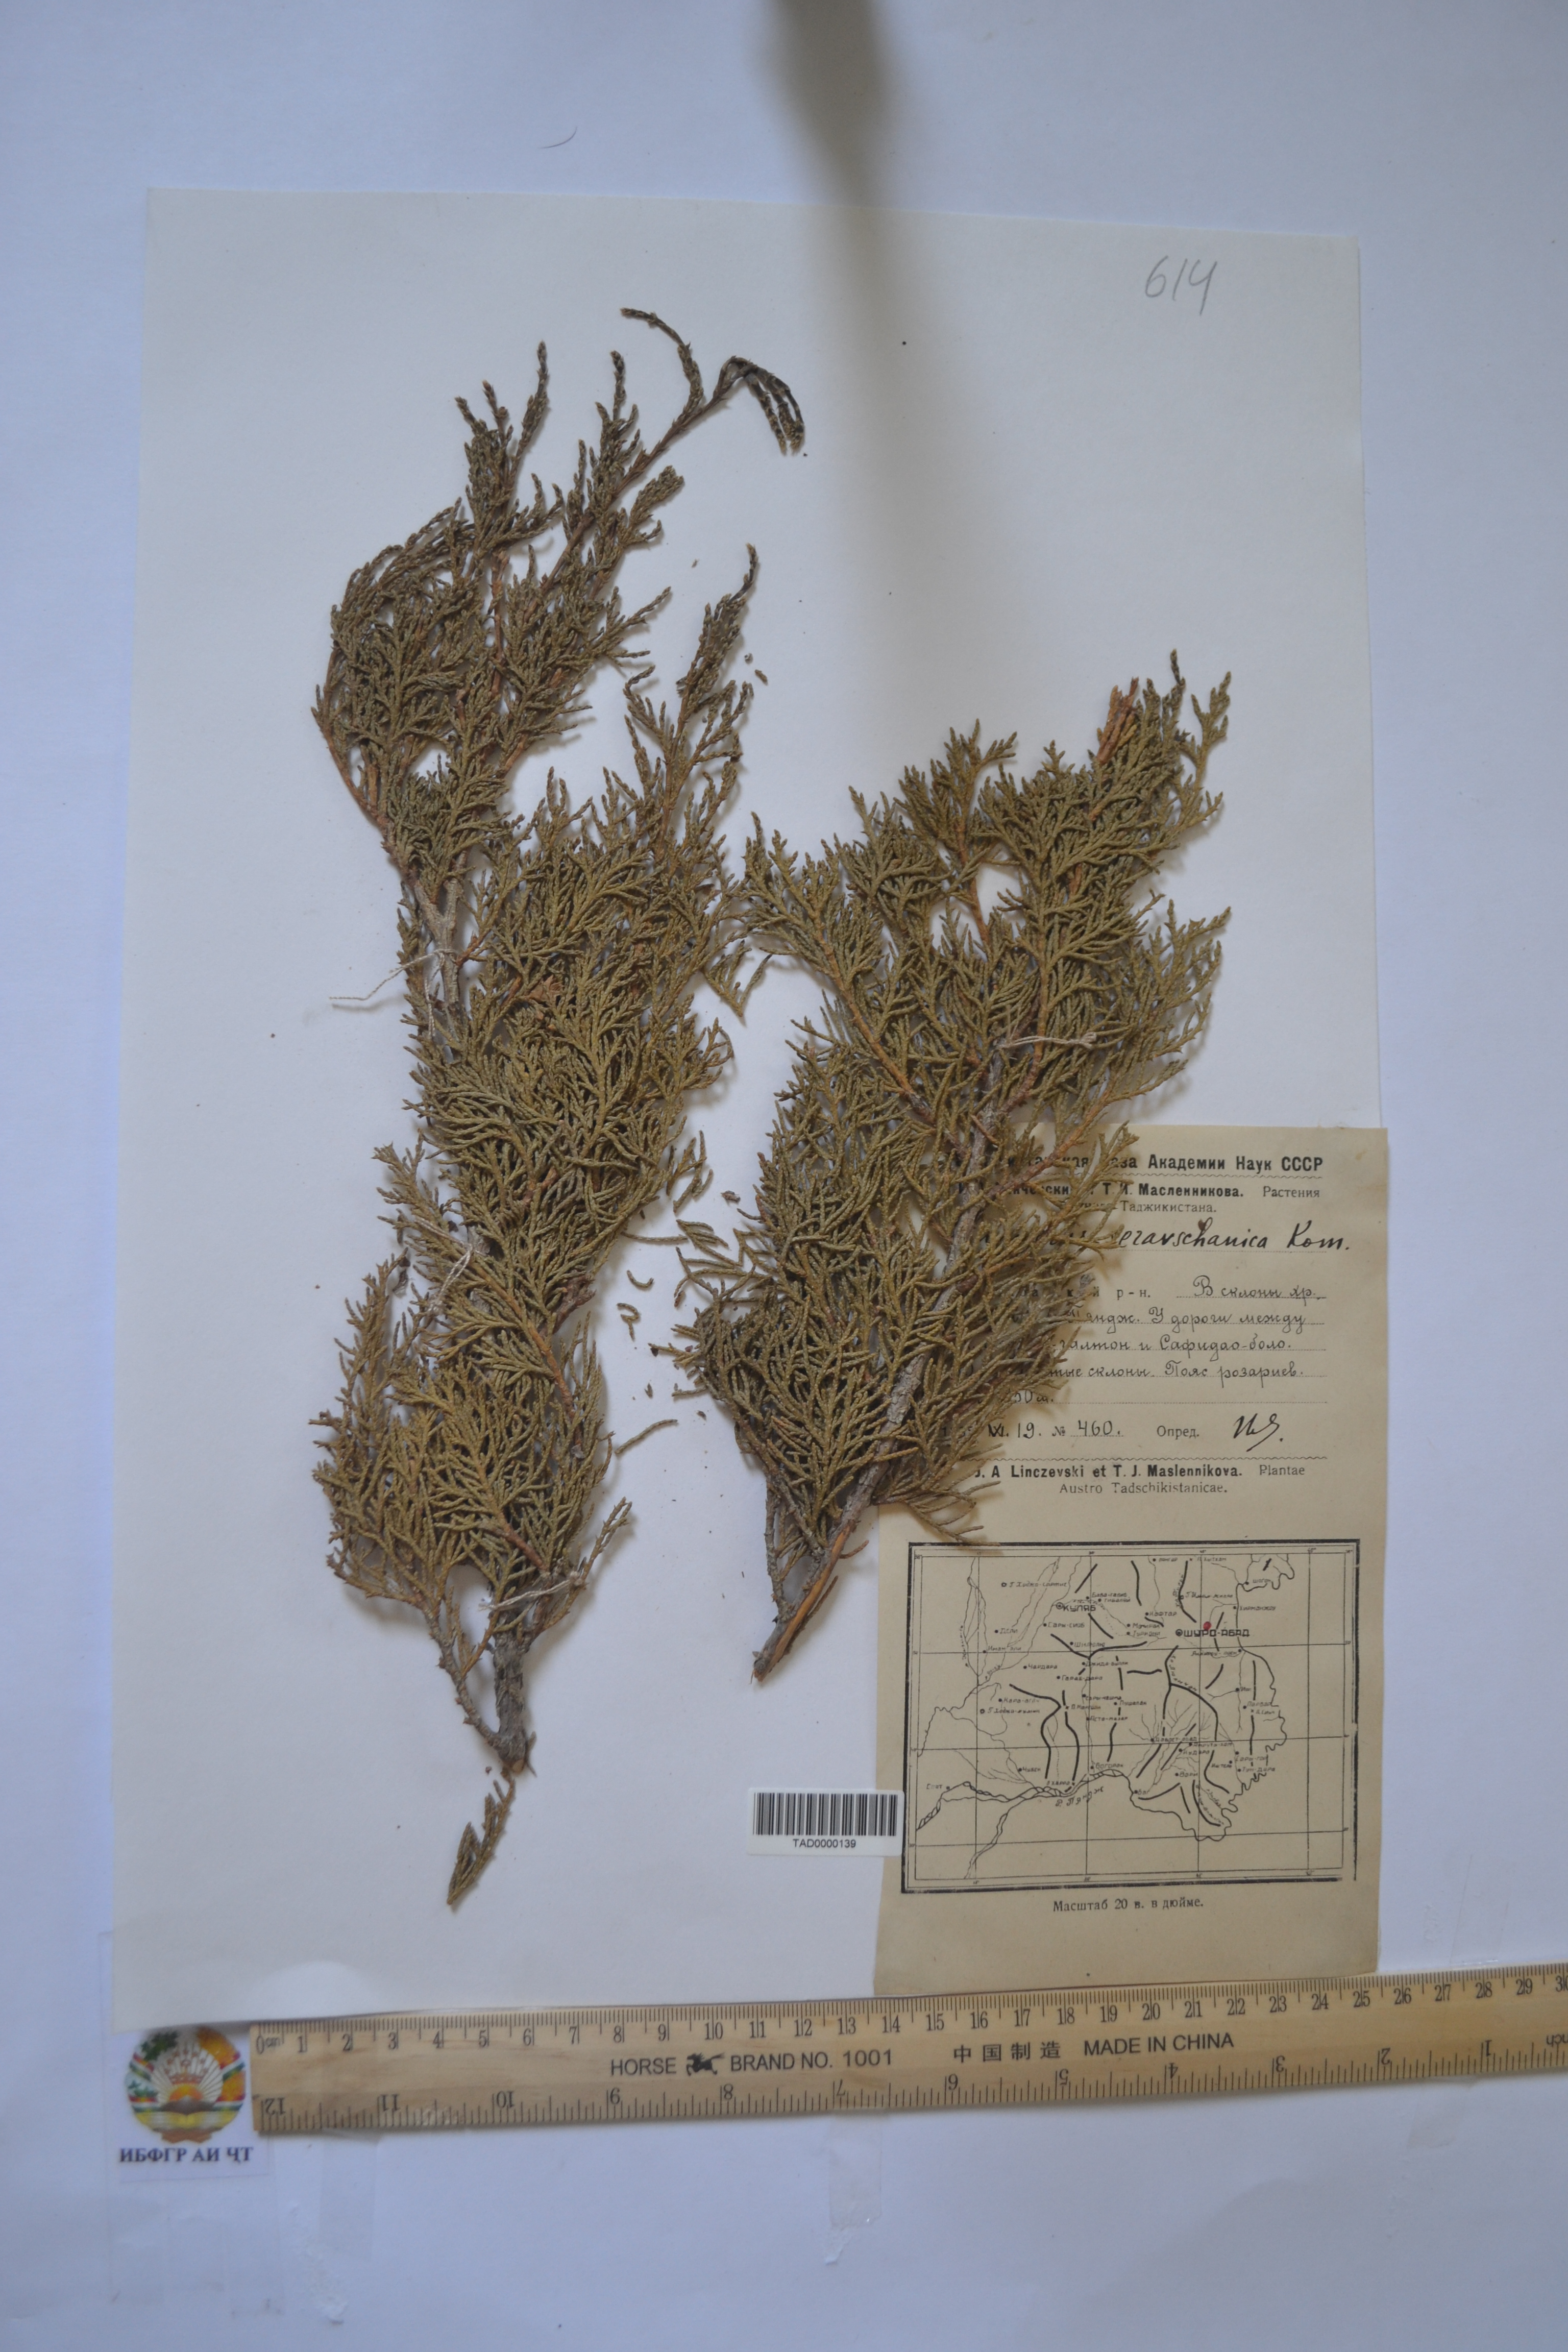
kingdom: Plantae
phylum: Tracheophyta
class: Pinopsida
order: Pinales
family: Cupressaceae
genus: Juniperus
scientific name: Juniperus excelsa
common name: Crimean juniper
